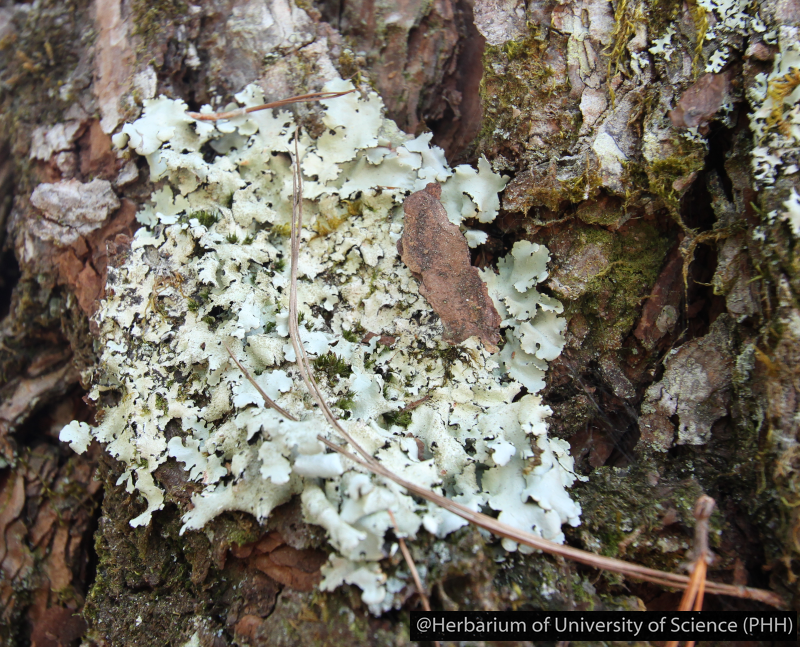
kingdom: Fungi
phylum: Ascomycota
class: Lecanoromycetes
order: Lecanorales
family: Parmeliaceae
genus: Parmotrema
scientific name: Parmotrema
